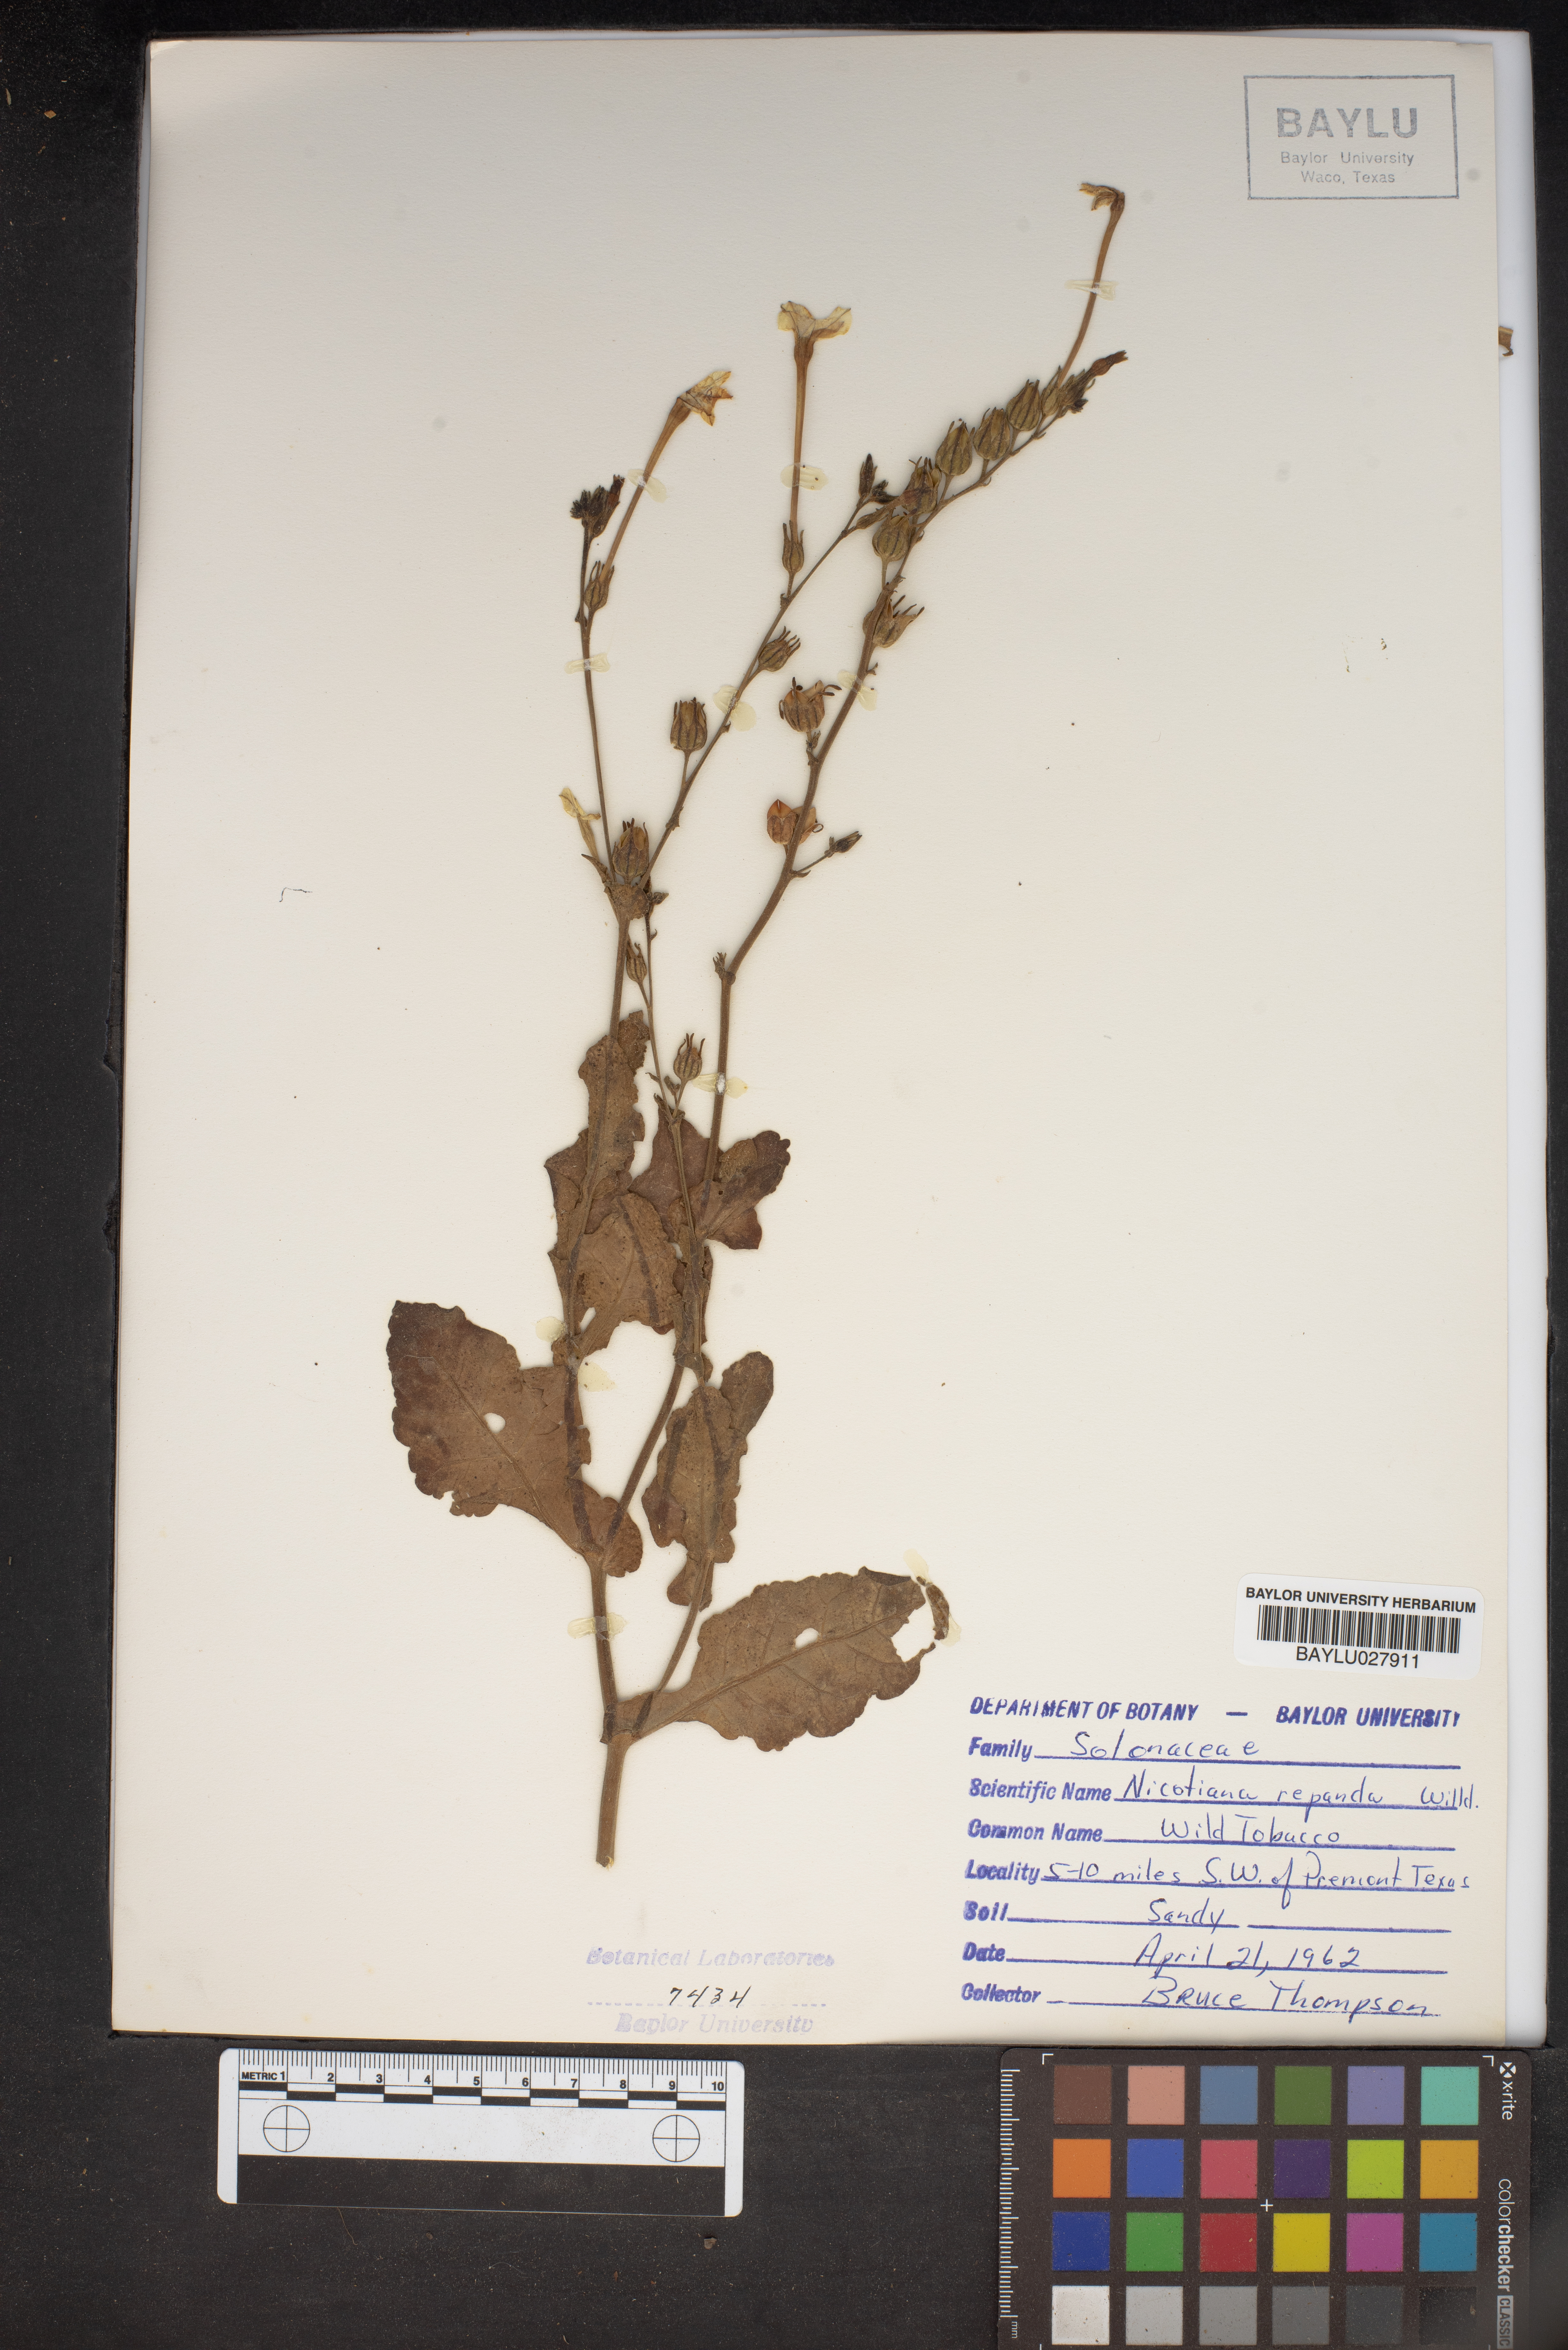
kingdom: Plantae
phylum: Tracheophyta
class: Magnoliopsida
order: Solanales
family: Solanaceae
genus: Nicotiana
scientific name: Nicotiana repanda
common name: Fiddle-leaf tobacco
